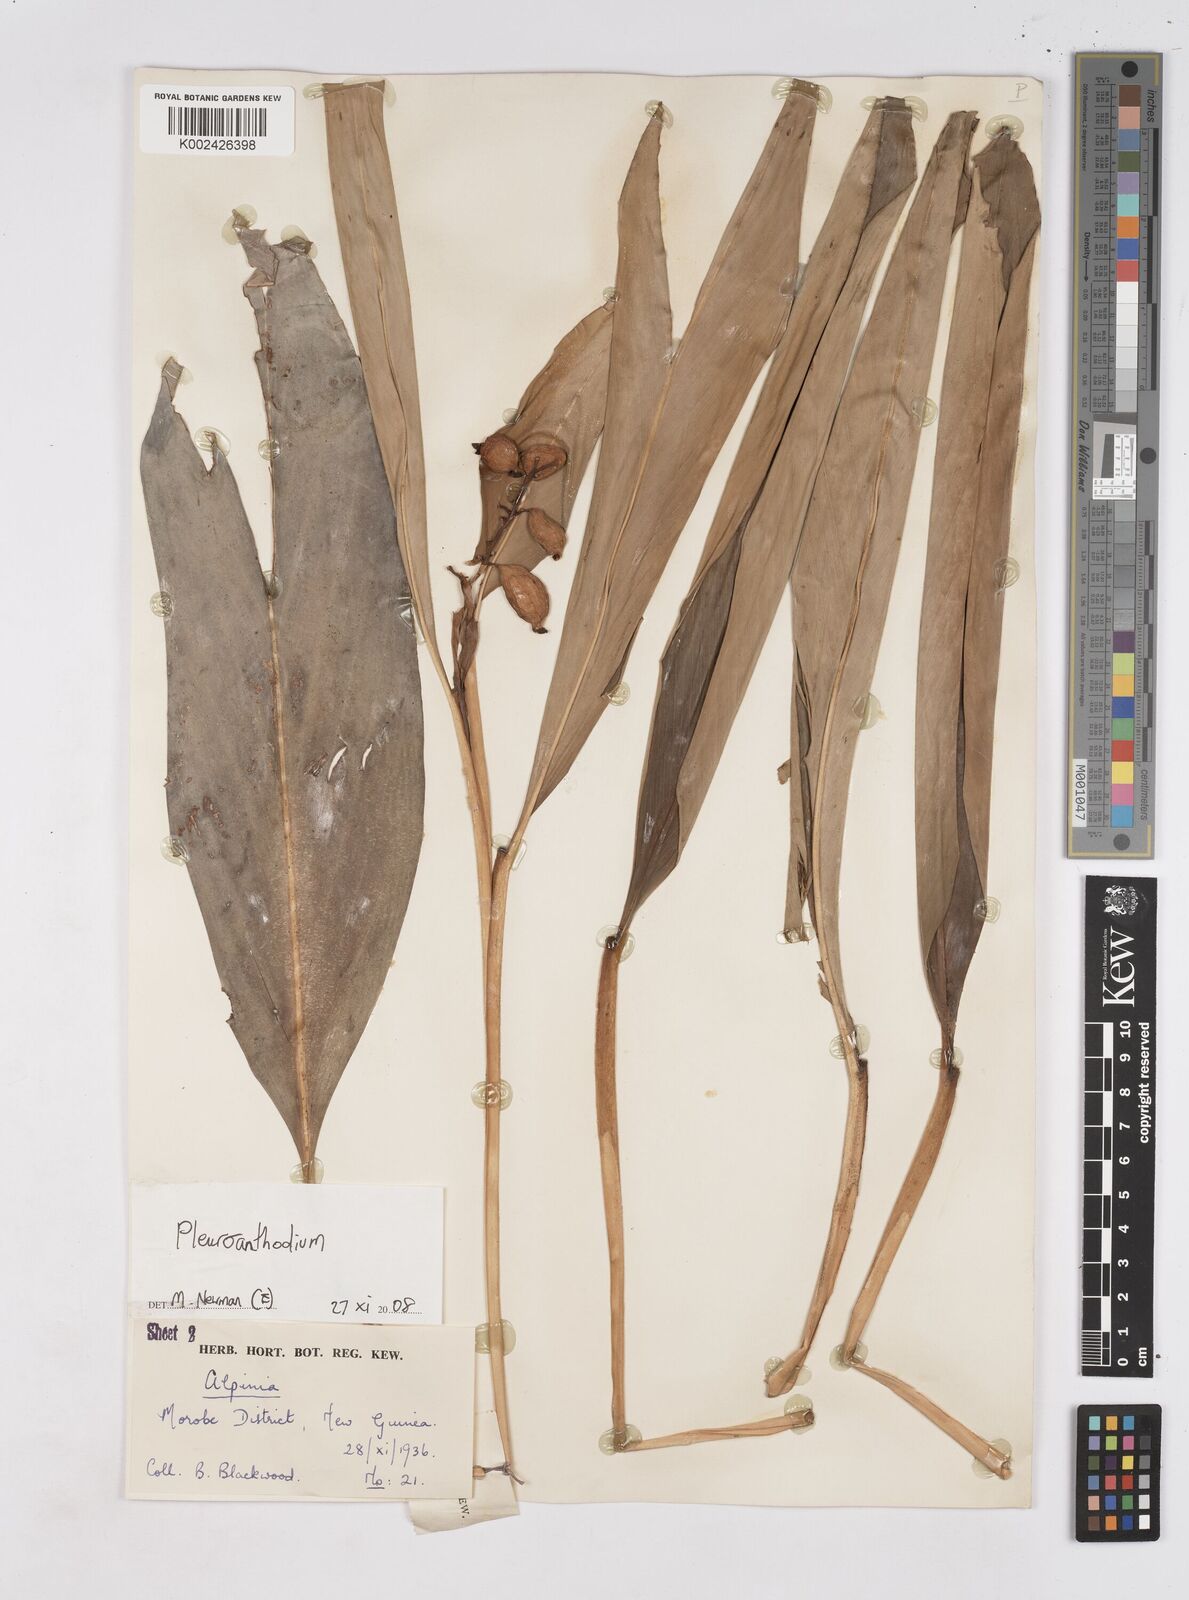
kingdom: Plantae
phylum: Tracheophyta
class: Liliopsida
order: Zingiberales
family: Zingiberaceae
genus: Pleuranthodium
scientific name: Pleuranthodium
